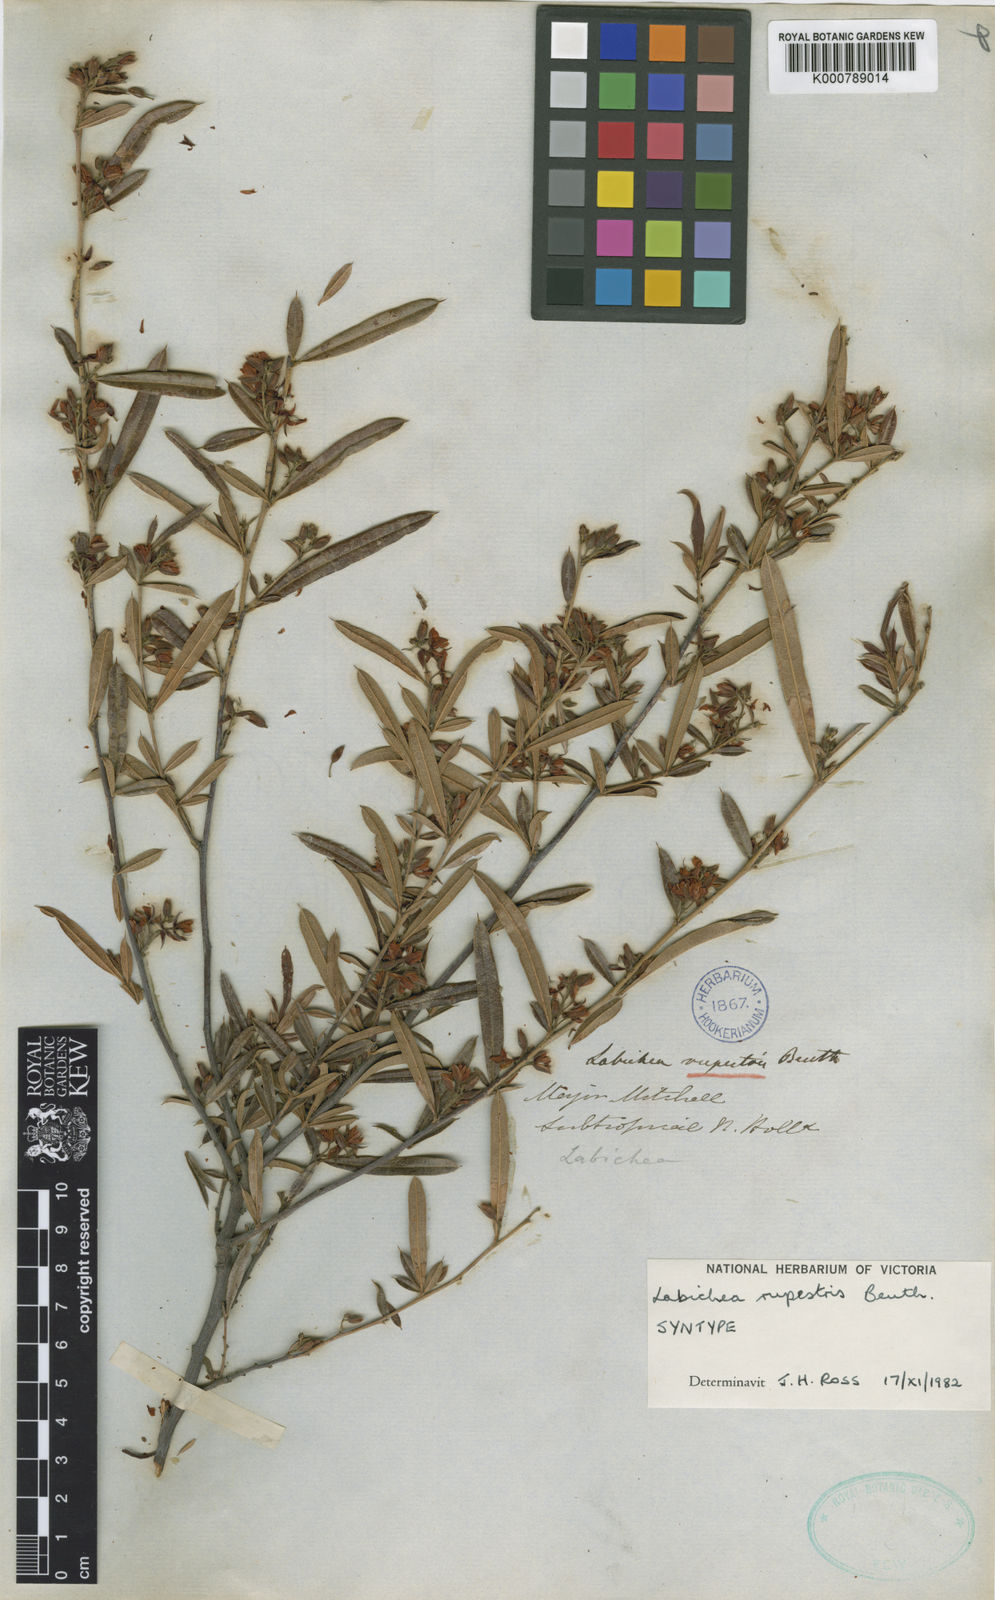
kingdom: Plantae
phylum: Tracheophyta
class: Magnoliopsida
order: Fabales
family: Fabaceae
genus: Labichea
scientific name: Labichea rupestris
